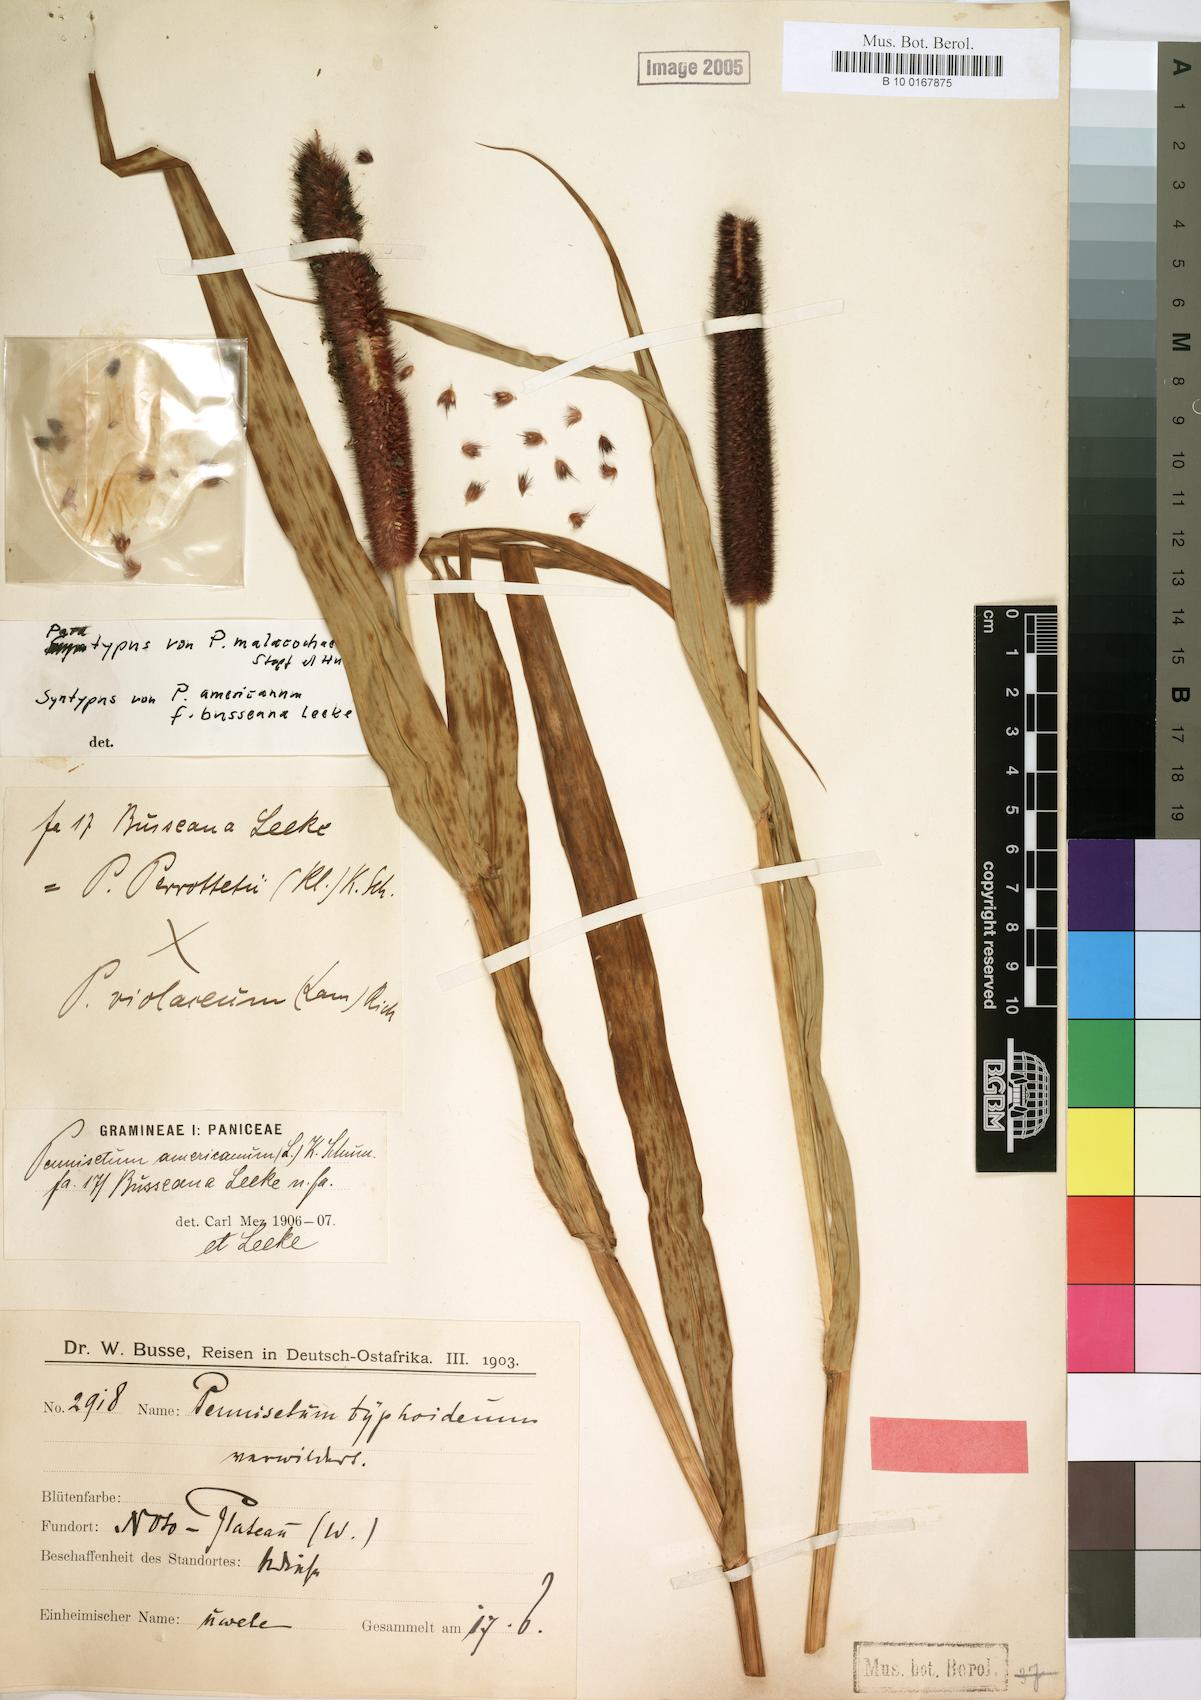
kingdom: Plantae
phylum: Tracheophyta
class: Liliopsida
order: Poales
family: Poaceae
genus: Cenchrus
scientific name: Cenchrus americanus
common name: Pearl millet
